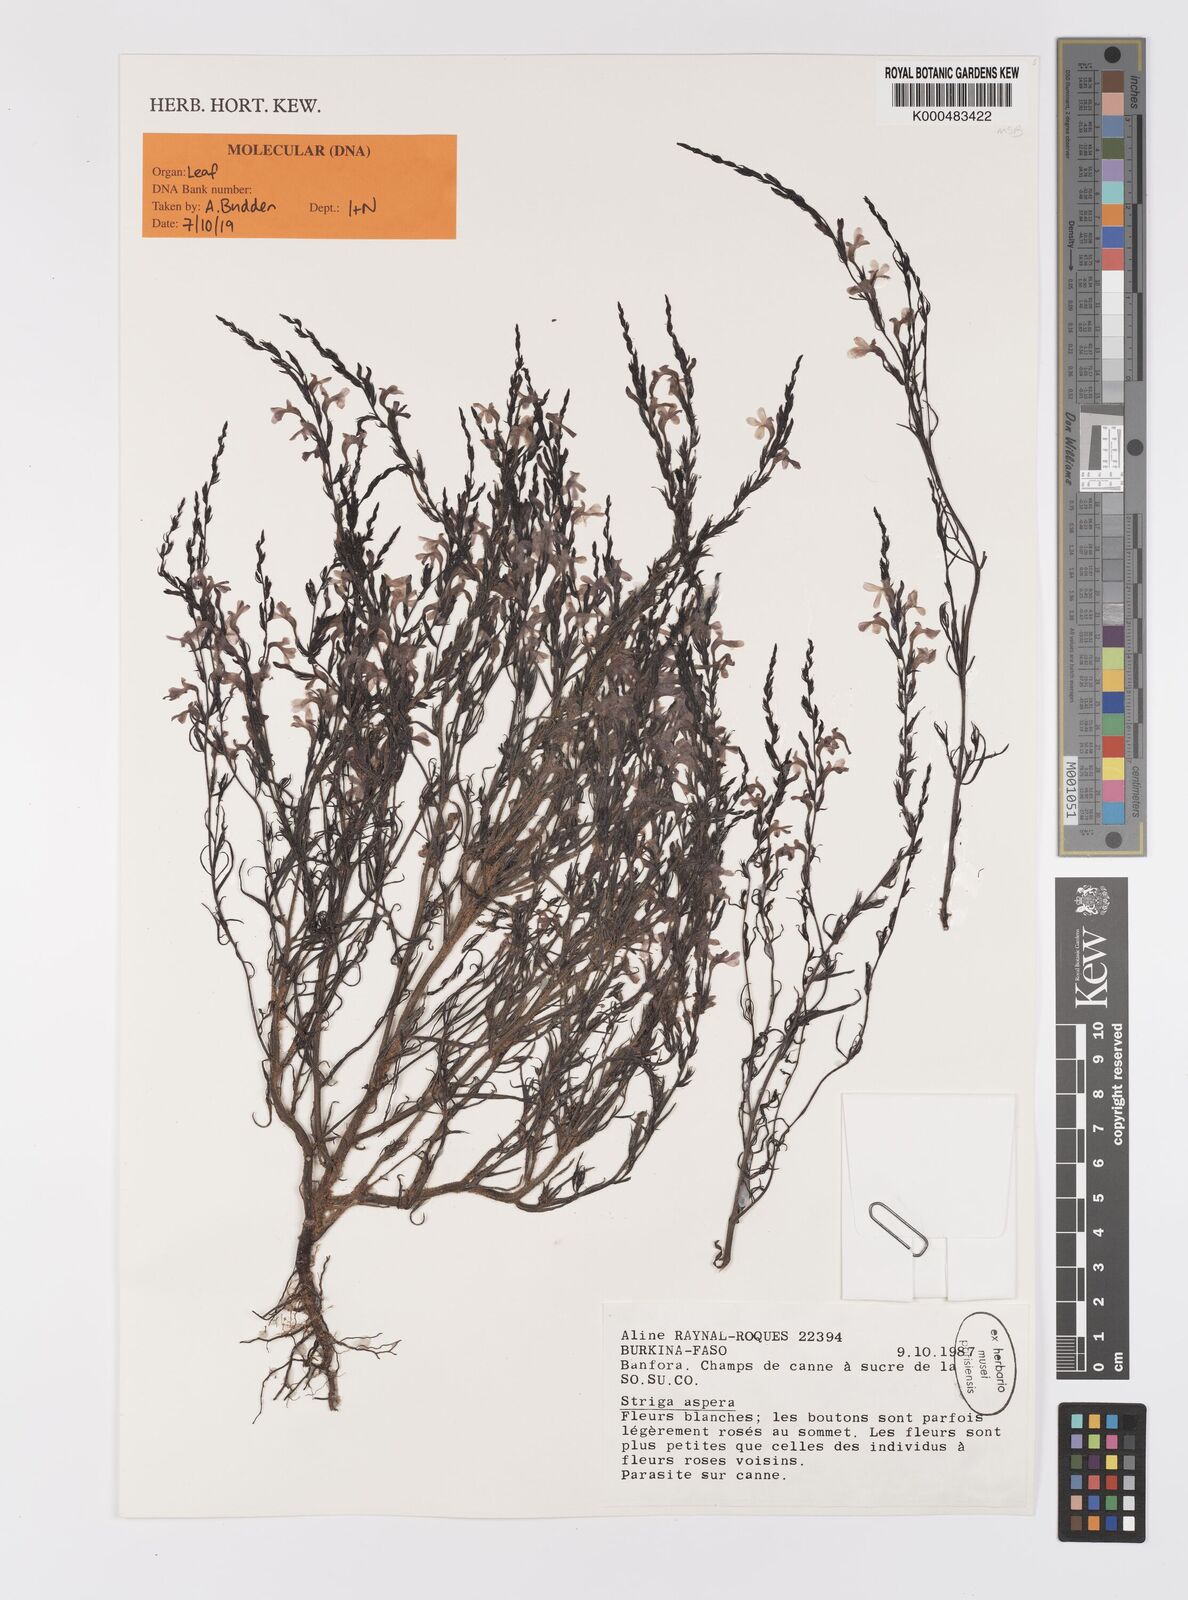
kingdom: Plantae
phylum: Tracheophyta
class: Magnoliopsida
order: Lamiales
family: Orobanchaceae
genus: Striga
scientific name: Striga aspera
